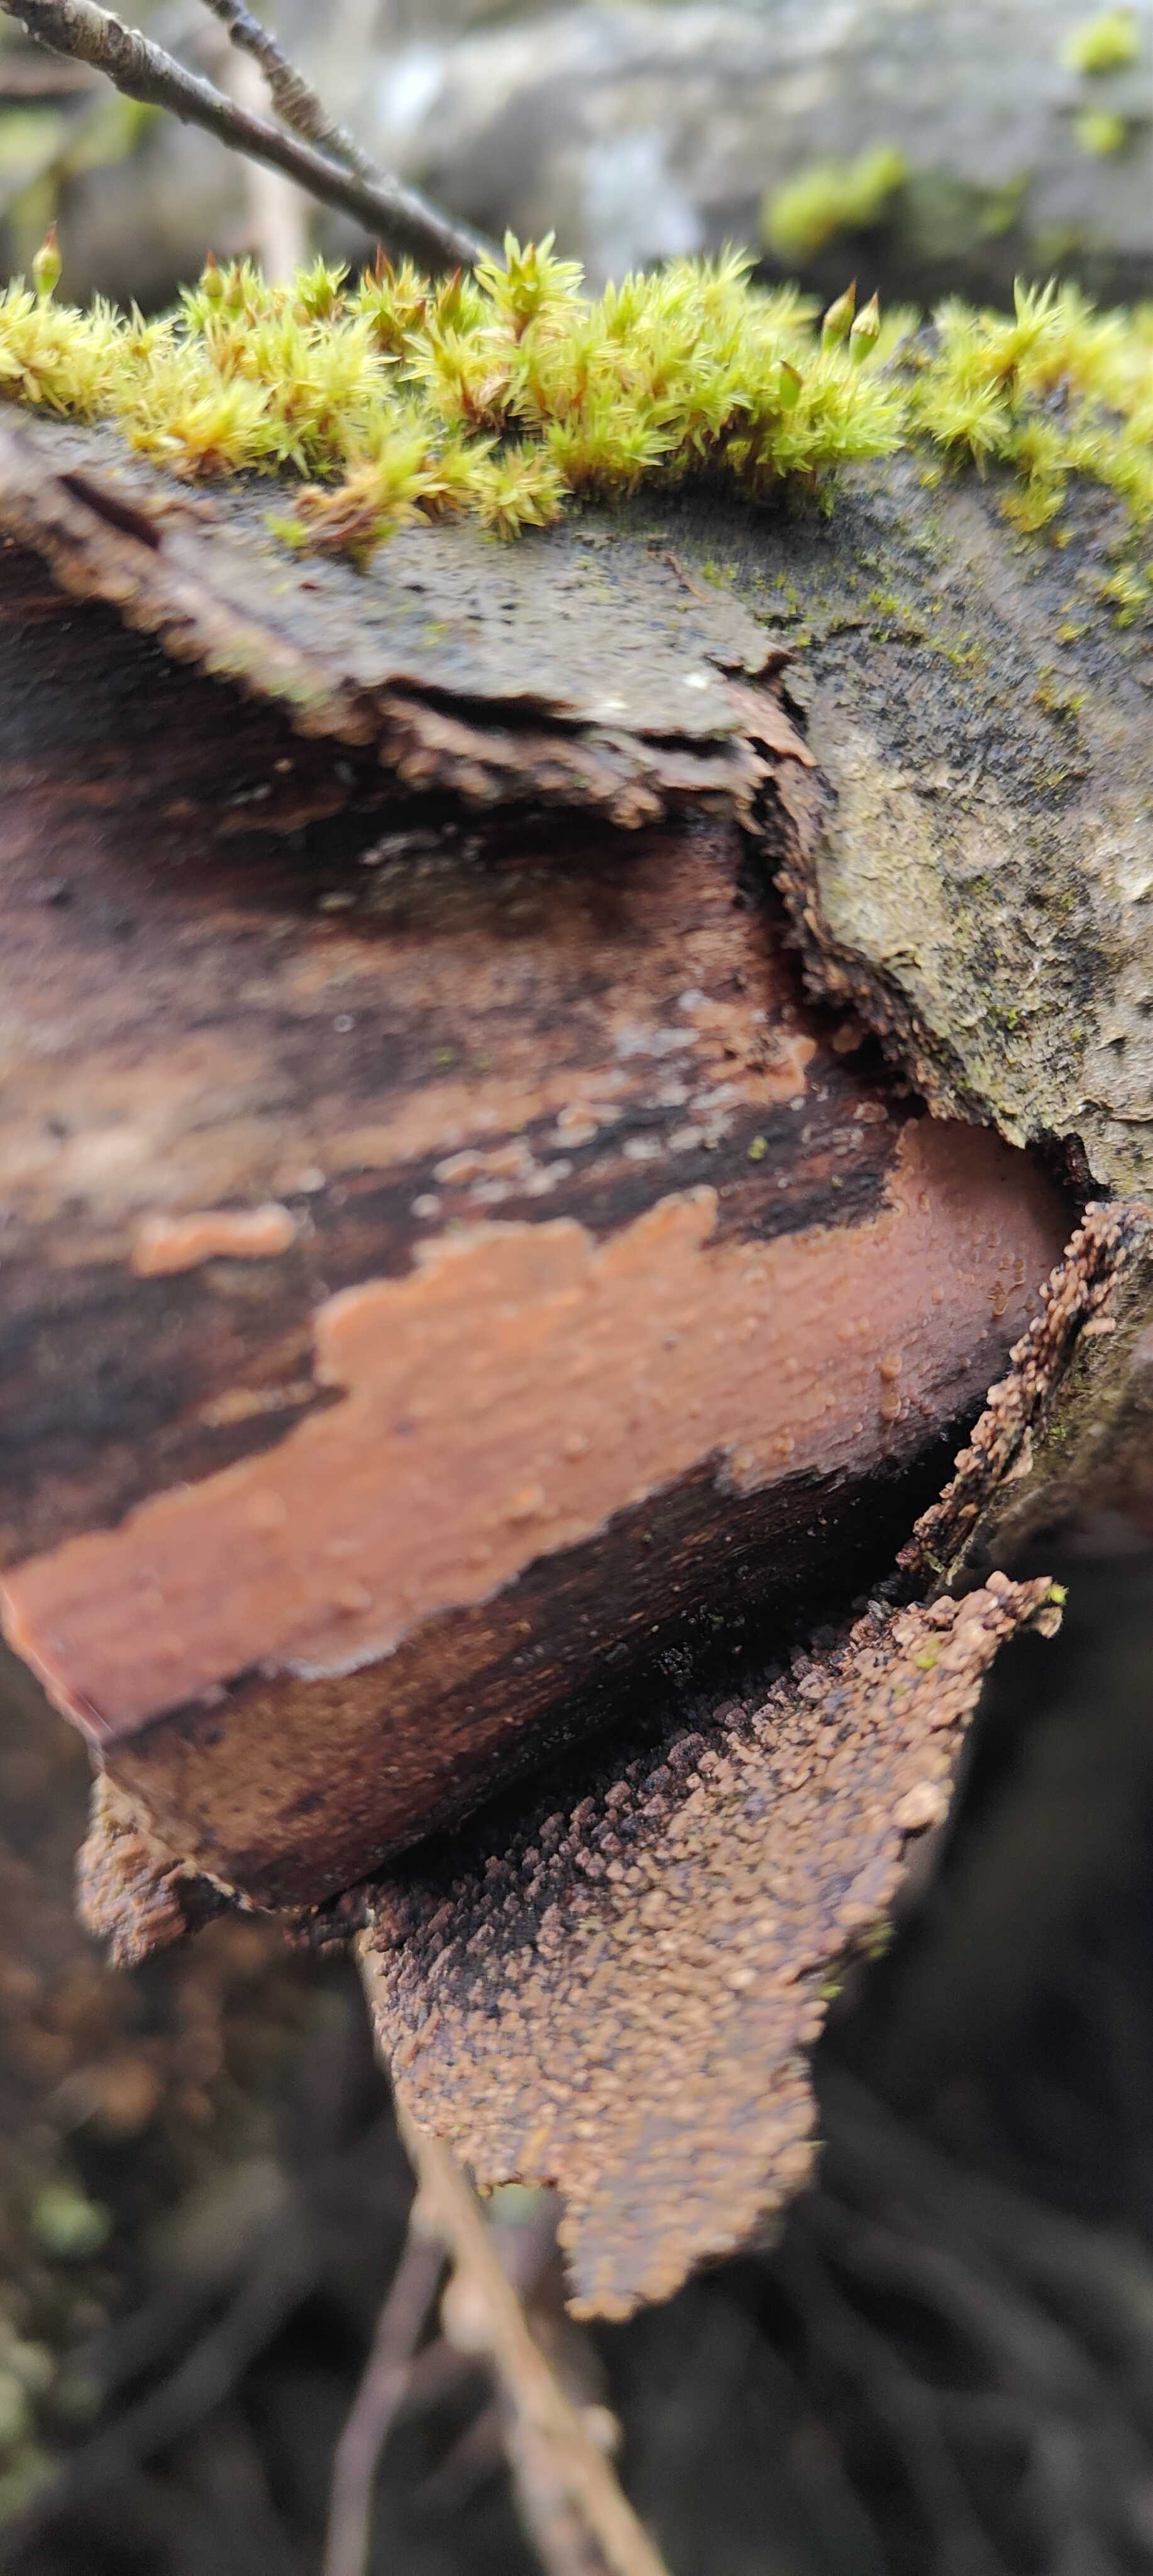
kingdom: Fungi
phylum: Basidiomycota
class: Agaricomycetes
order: Russulales
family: Peniophoraceae
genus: Peniophora
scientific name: Peniophora incarnata
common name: laksefarvet voksskind
